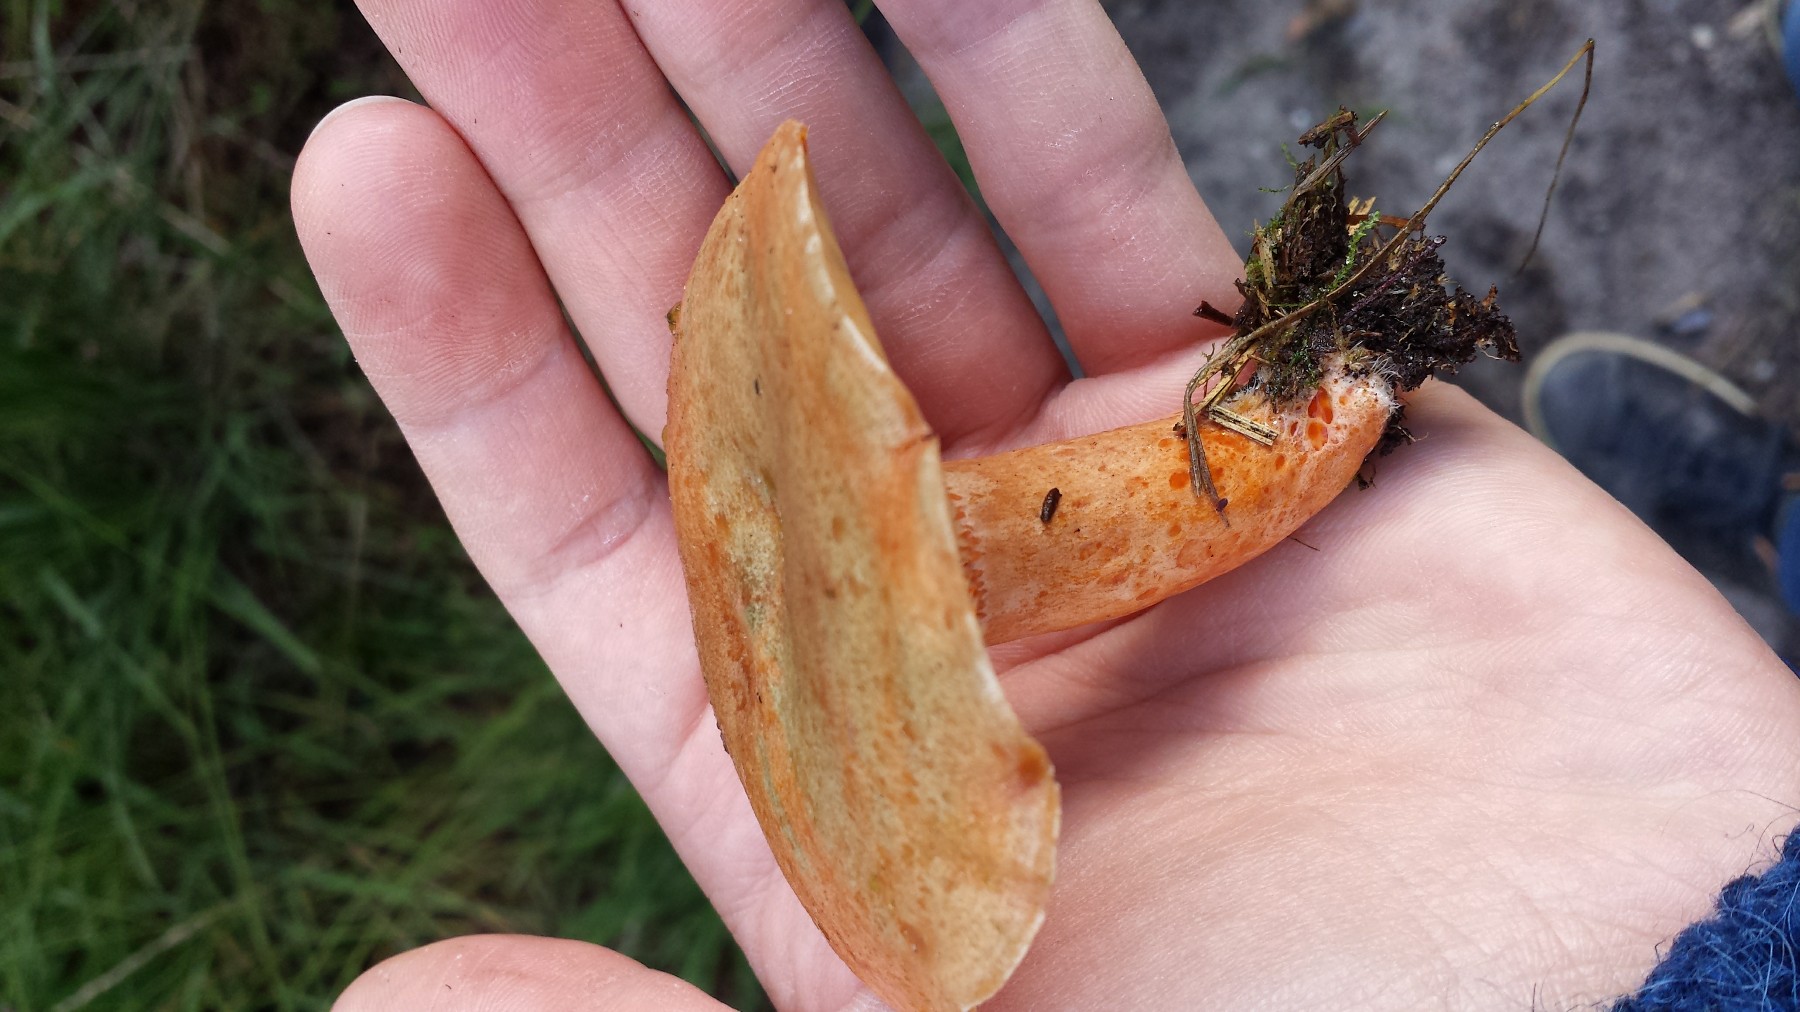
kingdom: Fungi
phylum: Basidiomycota
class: Agaricomycetes
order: Russulales
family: Russulaceae
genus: Lactarius
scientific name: Lactarius deliciosus
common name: velsmagende mælkehat
